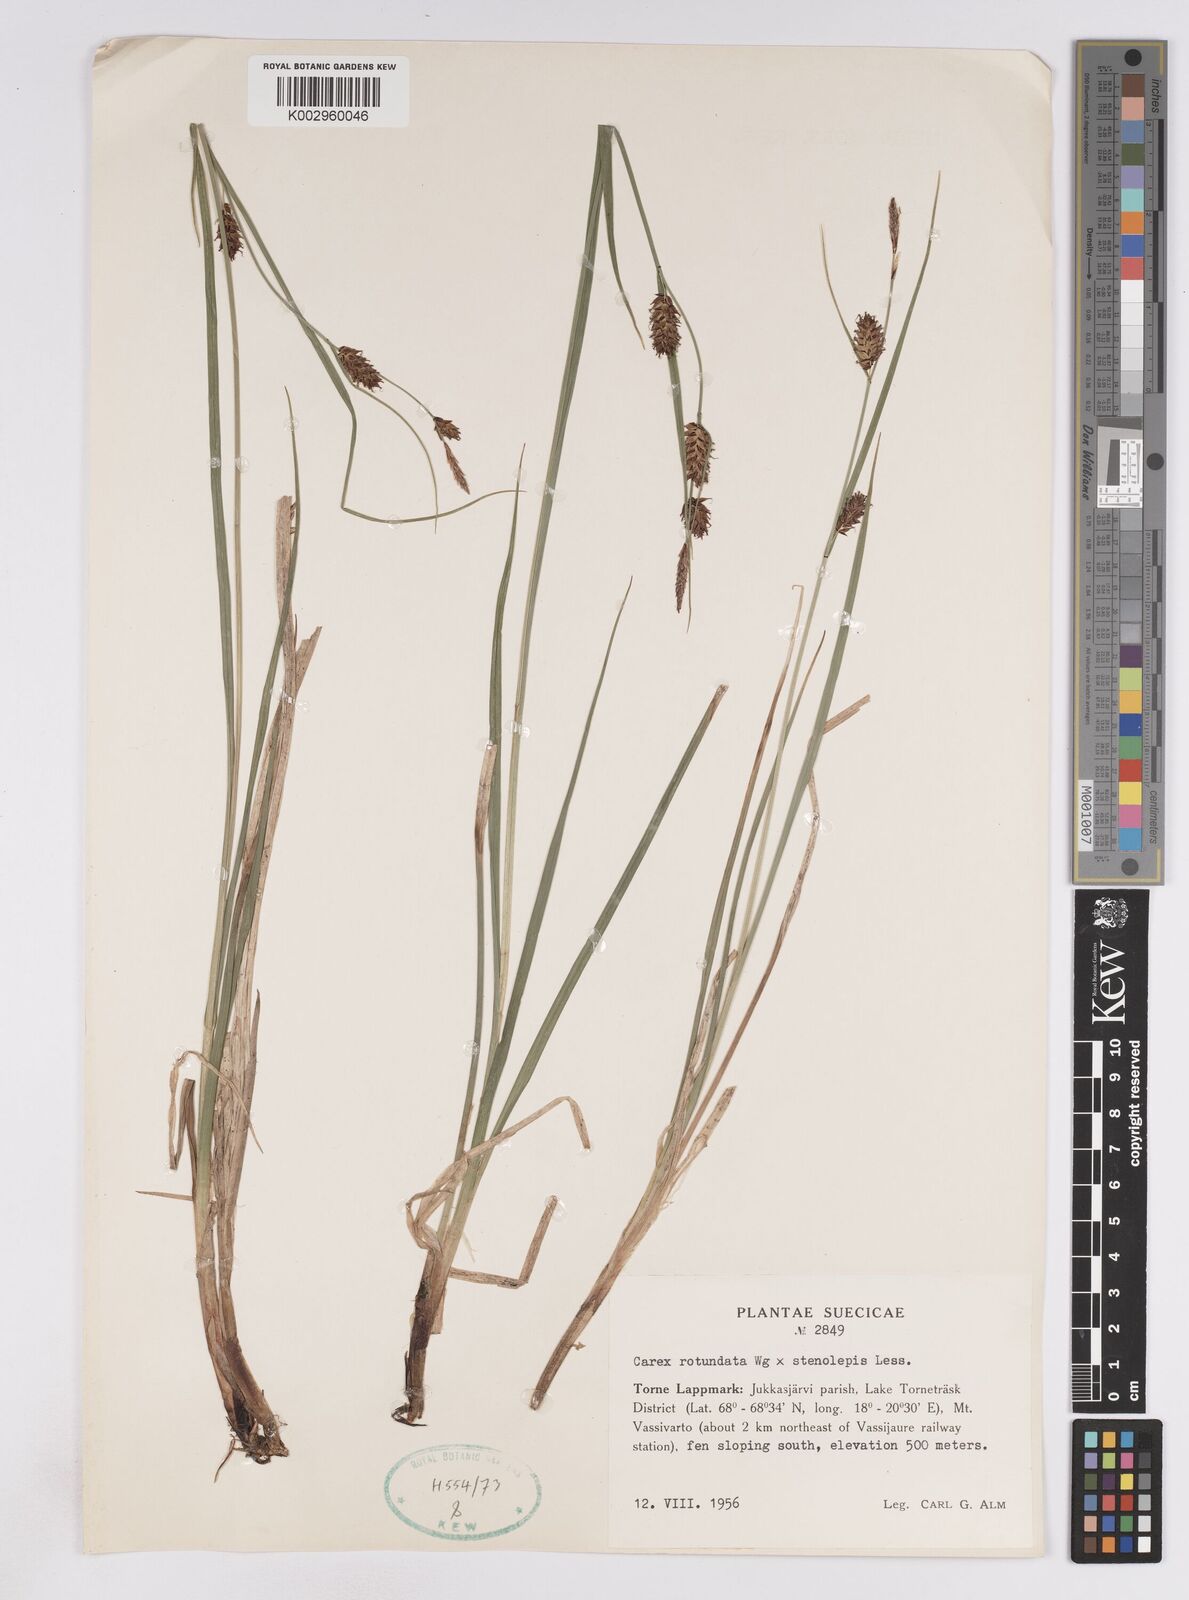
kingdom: Plantae
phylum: Tracheophyta
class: Liliopsida
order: Poales
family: Cyperaceae
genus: Carex
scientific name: Carex
